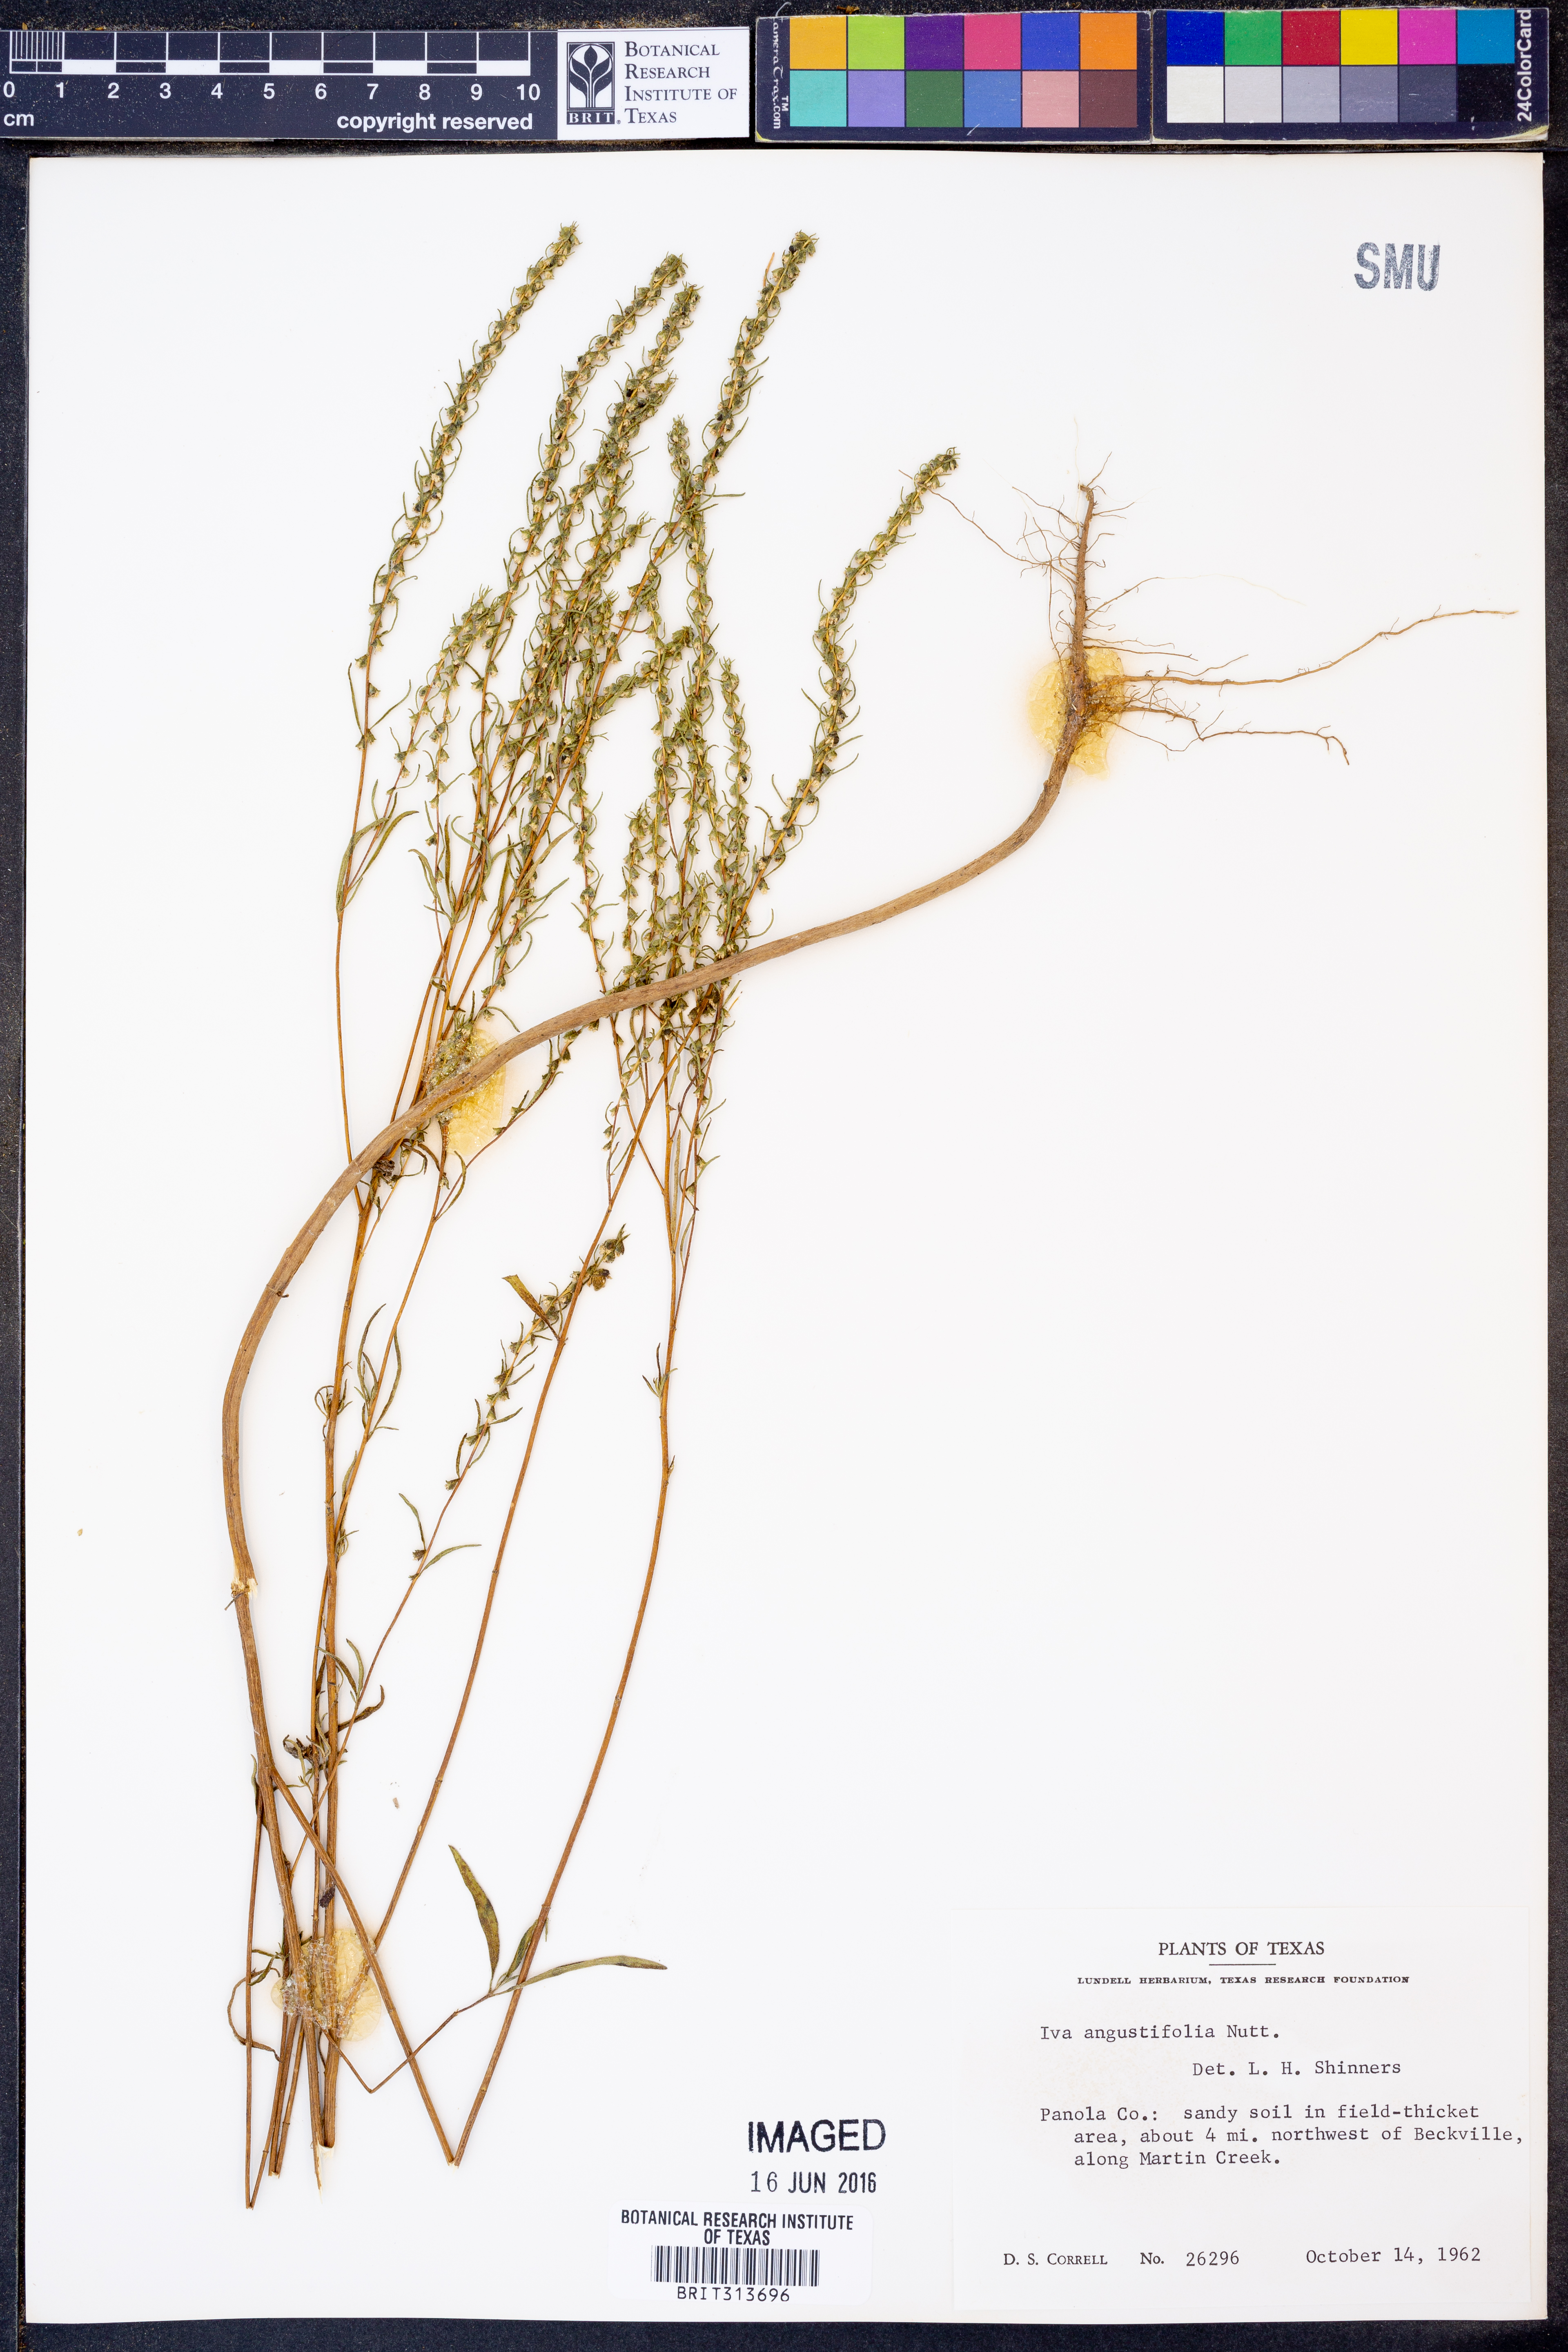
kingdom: Plantae
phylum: Tracheophyta
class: Magnoliopsida
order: Asterales
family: Asteraceae
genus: Iva
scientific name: Iva asperifolia
